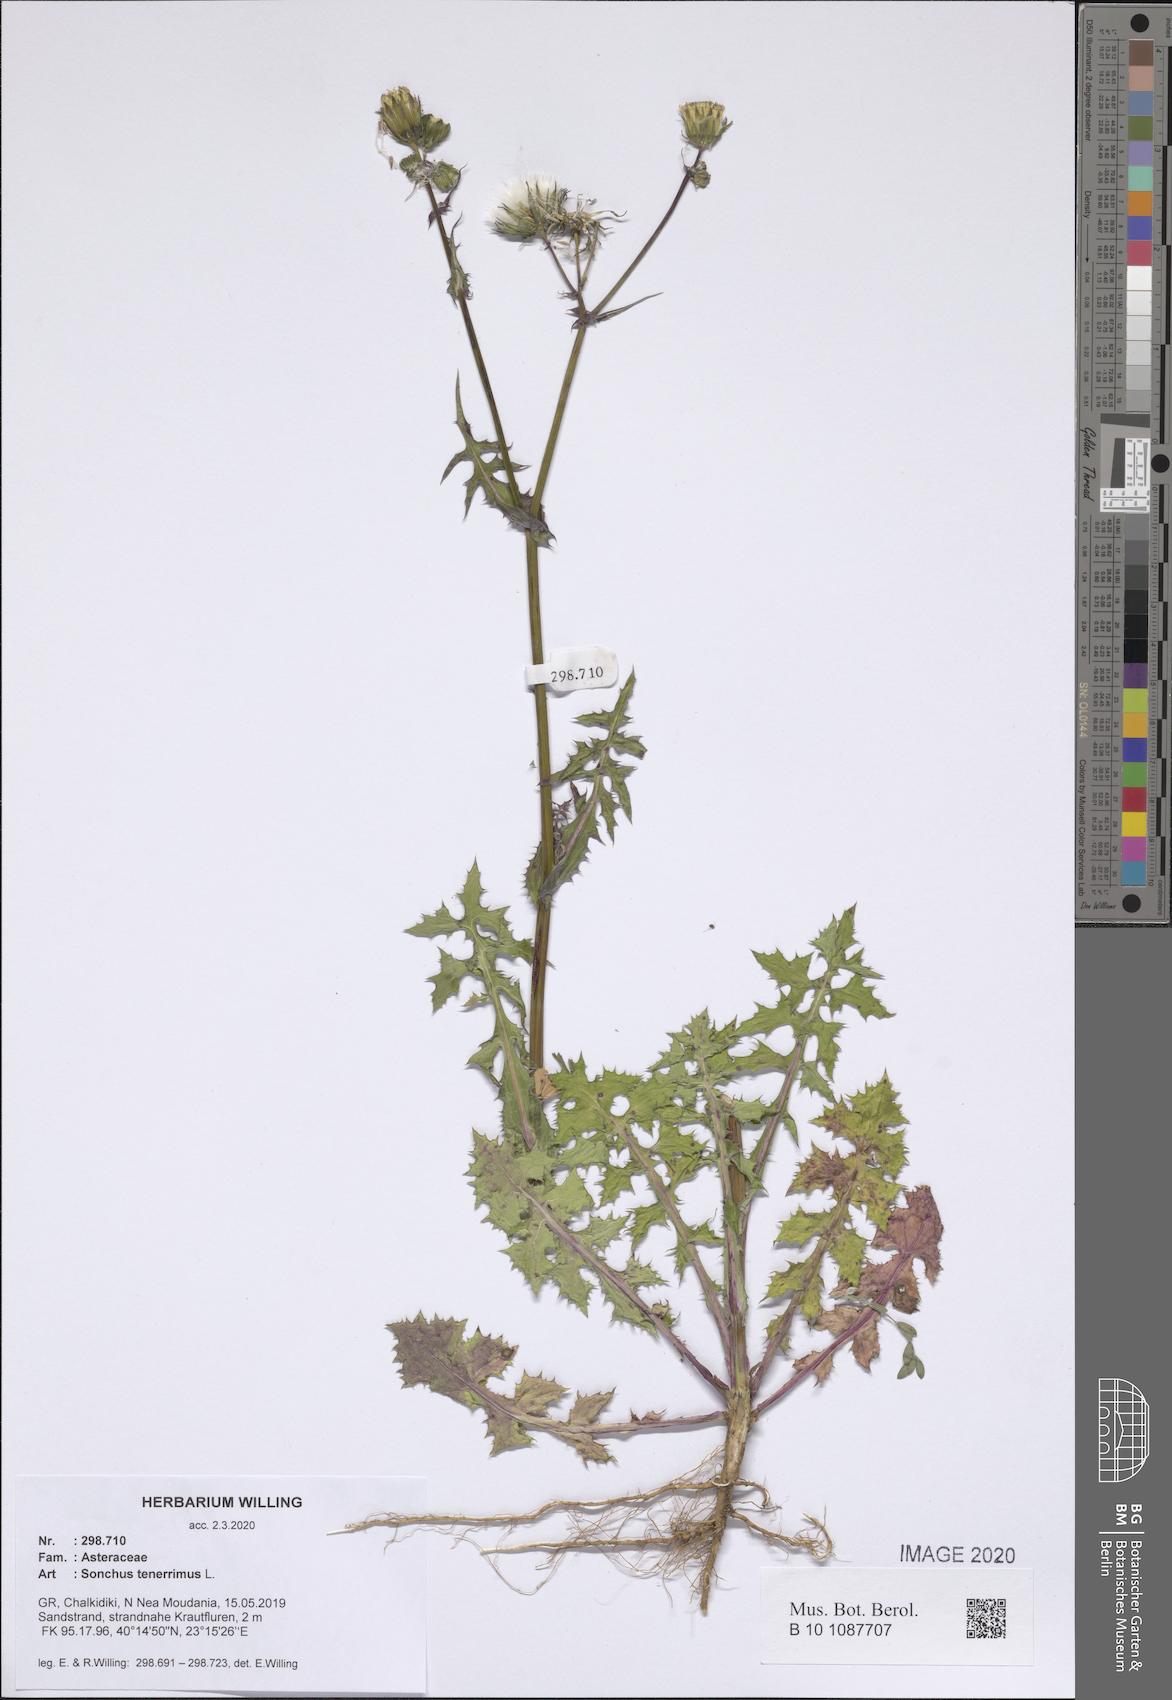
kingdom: Plantae
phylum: Tracheophyta
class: Magnoliopsida
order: Asterales
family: Asteraceae
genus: Sonchus
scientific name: Sonchus tenerrimus
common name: Clammy sowthistle
